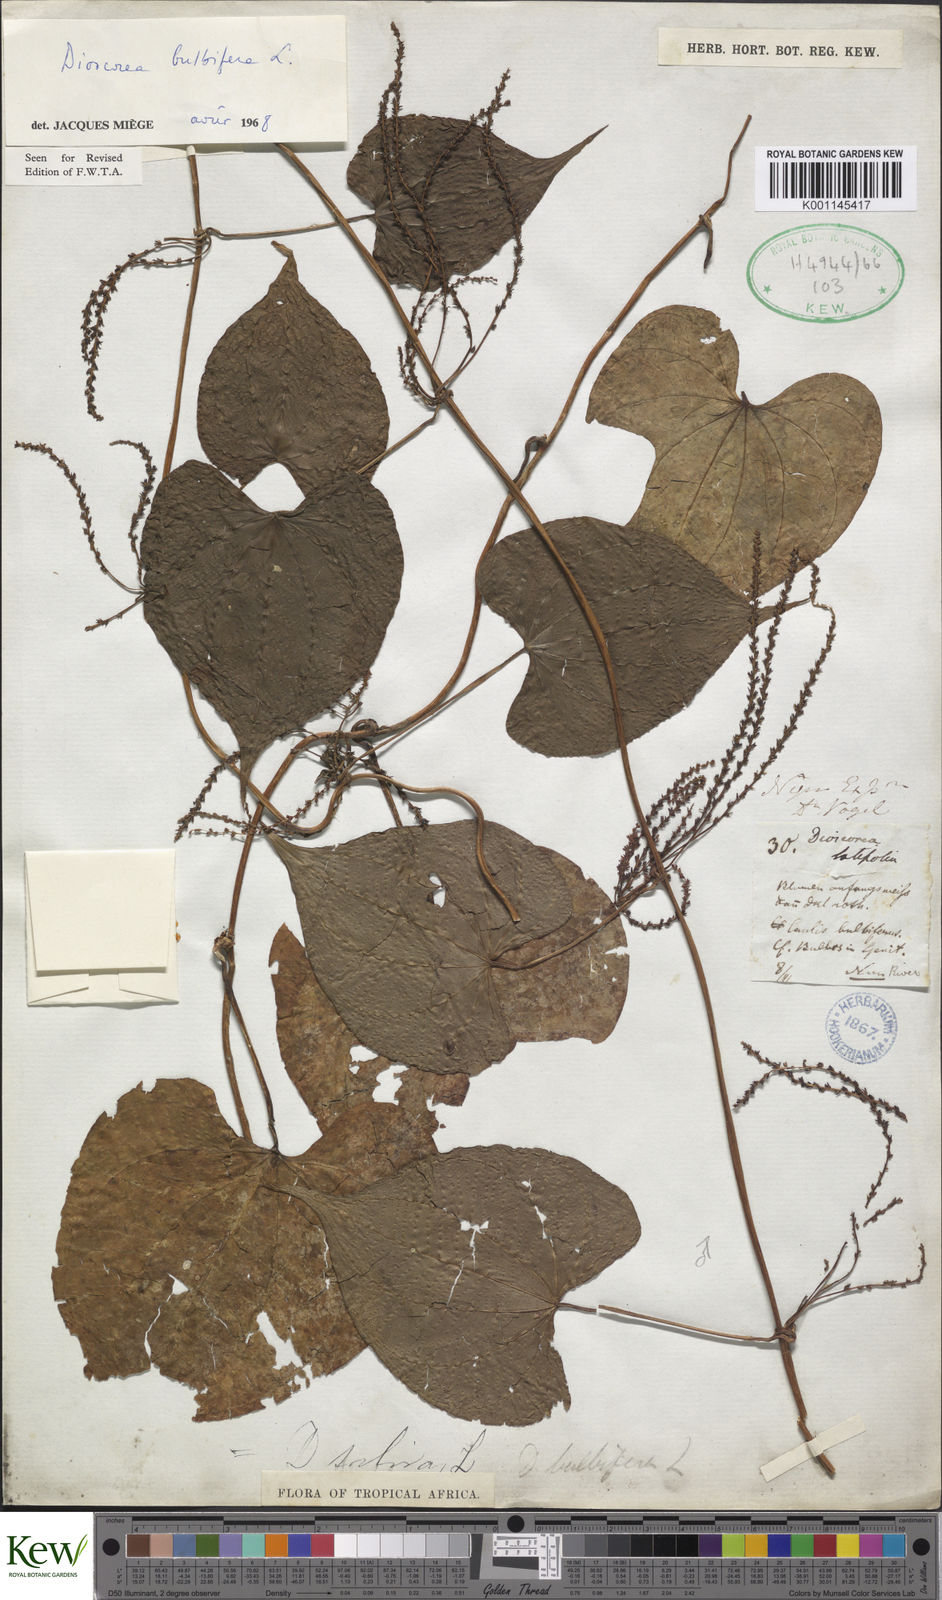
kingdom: Plantae
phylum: Tracheophyta
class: Liliopsida
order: Dioscoreales
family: Dioscoreaceae
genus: Dioscorea
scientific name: Dioscorea bulbifera
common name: Air yam
